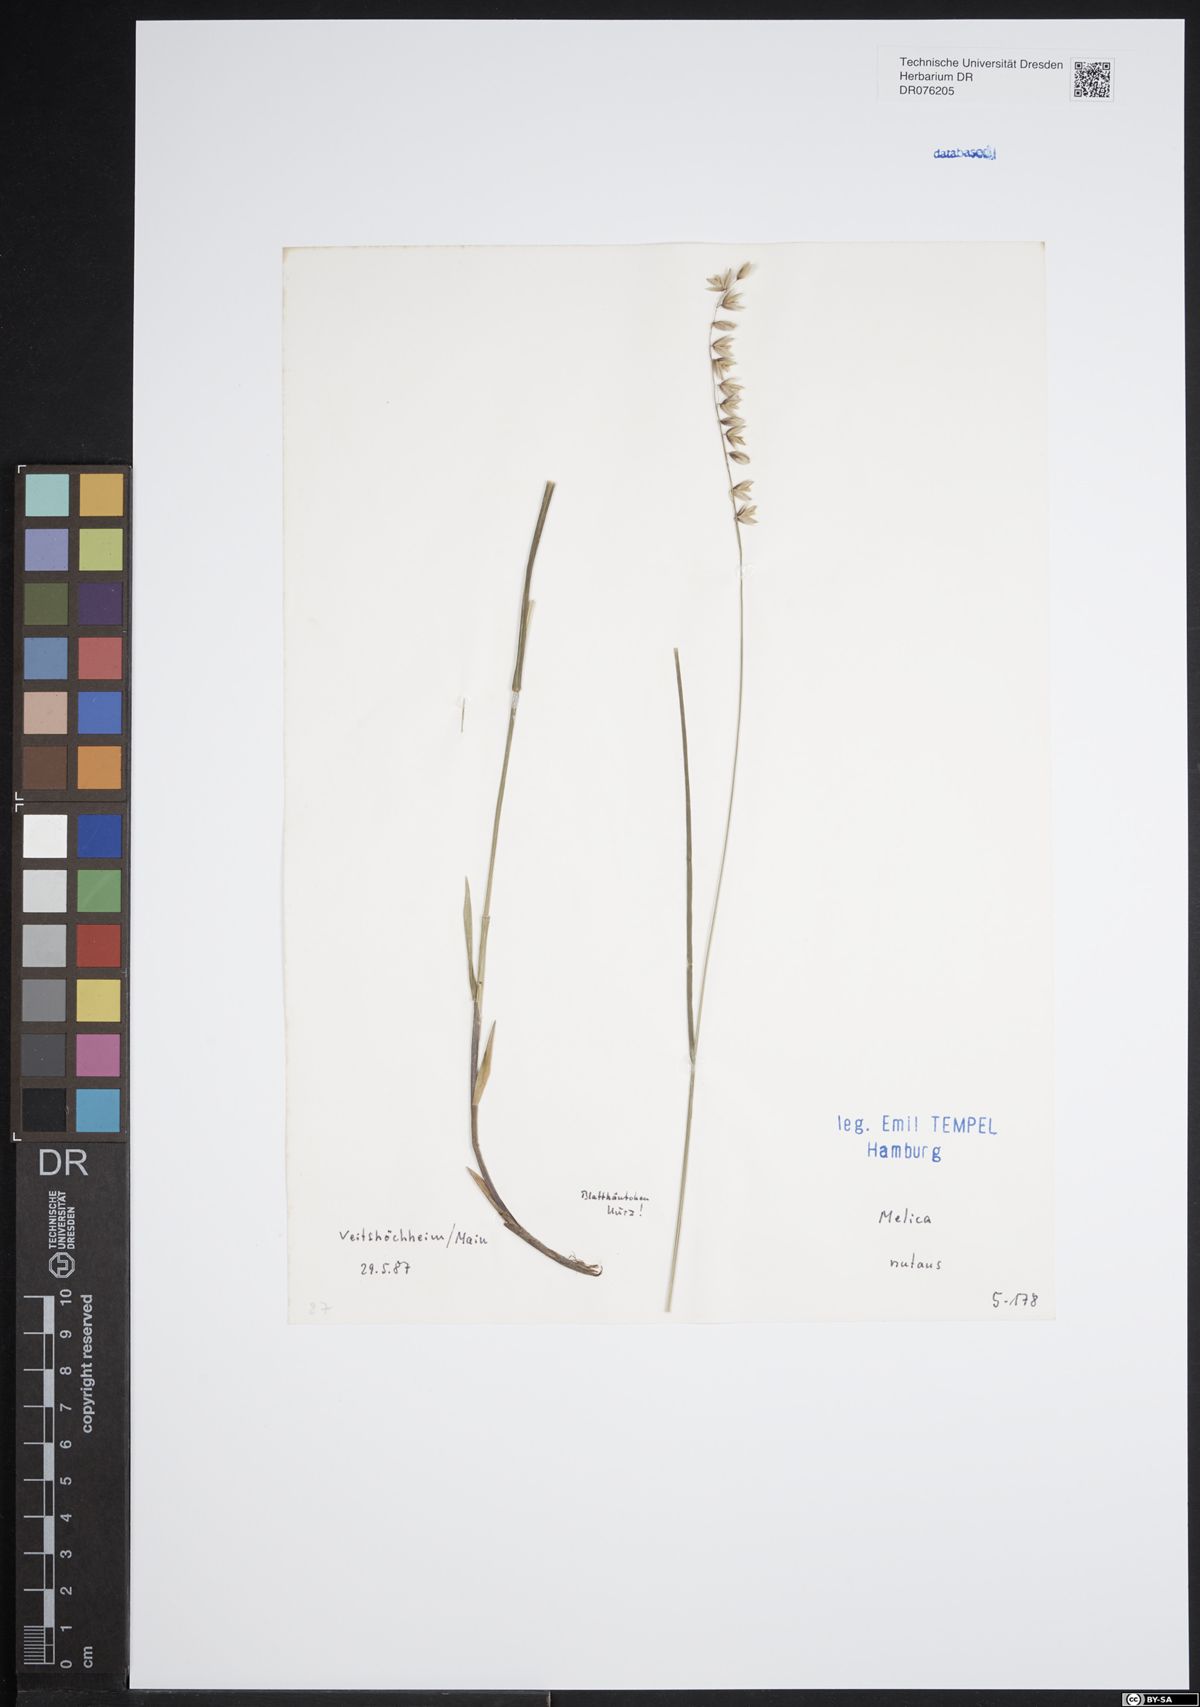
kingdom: Plantae
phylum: Tracheophyta
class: Liliopsida
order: Poales
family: Poaceae
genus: Melica
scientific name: Melica nutans
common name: Mountain melick
